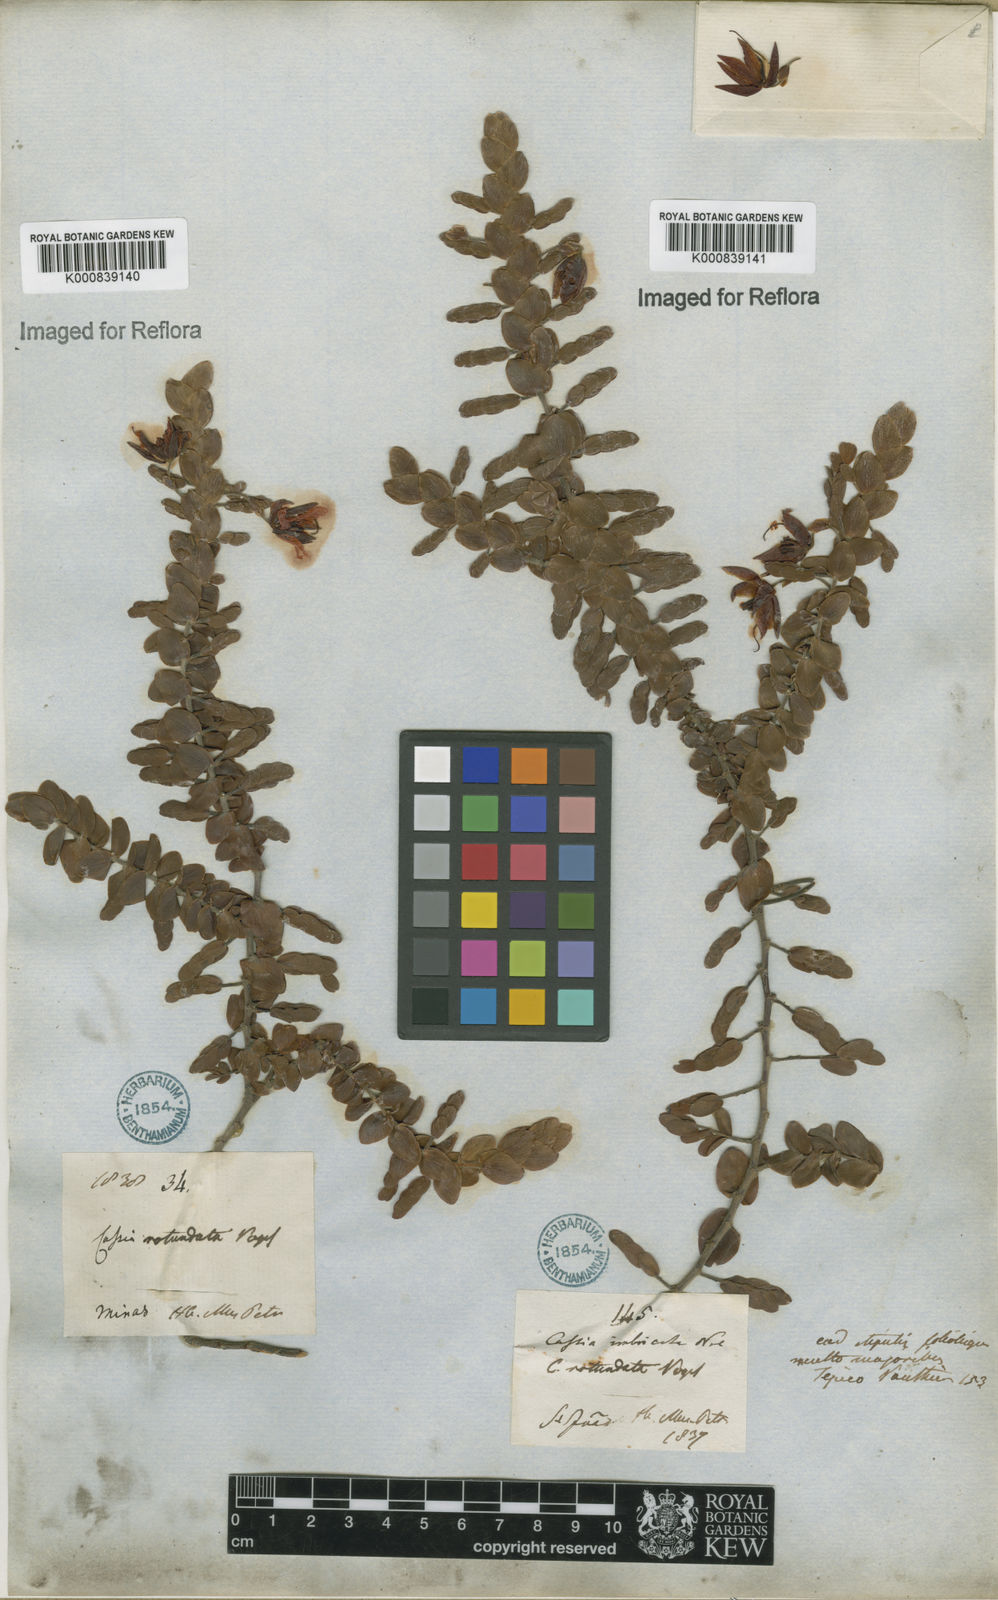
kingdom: Plantae
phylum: Tracheophyta
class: Magnoliopsida
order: Fabales
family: Fabaceae
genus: Chamaecrista
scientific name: Chamaecrista
